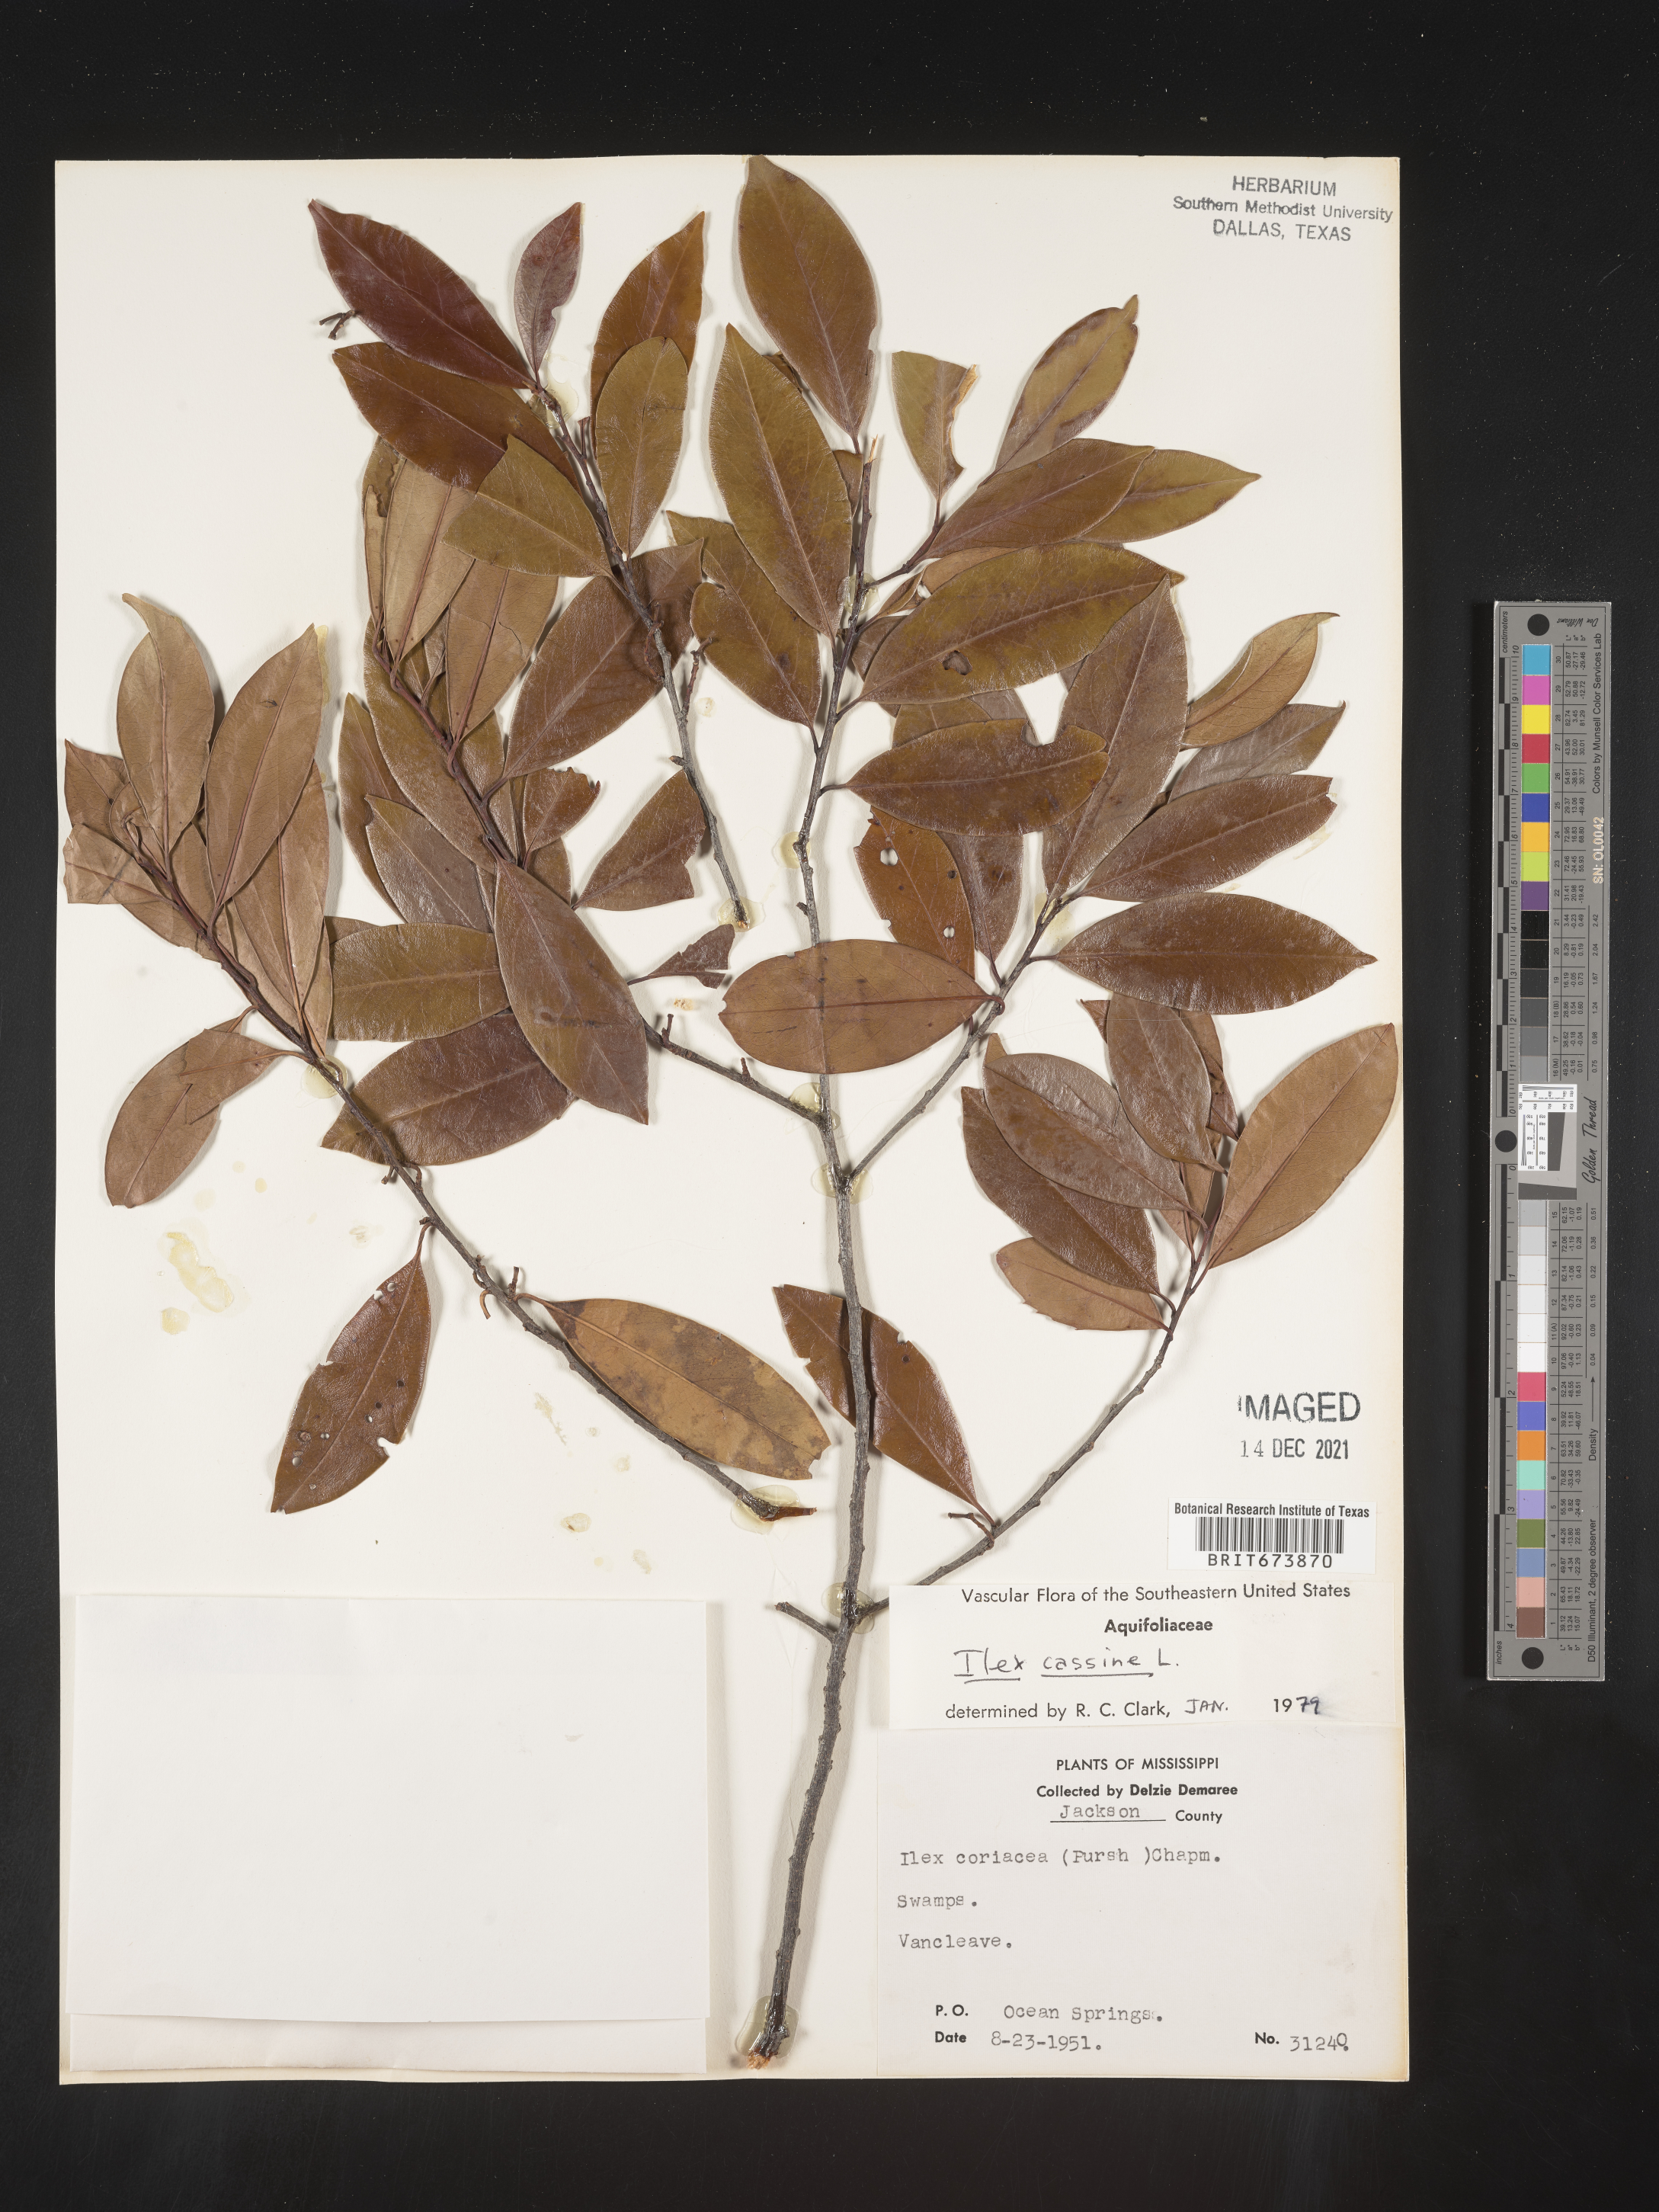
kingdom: Plantae
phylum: Tracheophyta
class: Magnoliopsida
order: Aquifoliales
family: Aquifoliaceae
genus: Ilex
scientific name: Ilex cassine
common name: Dahoon
